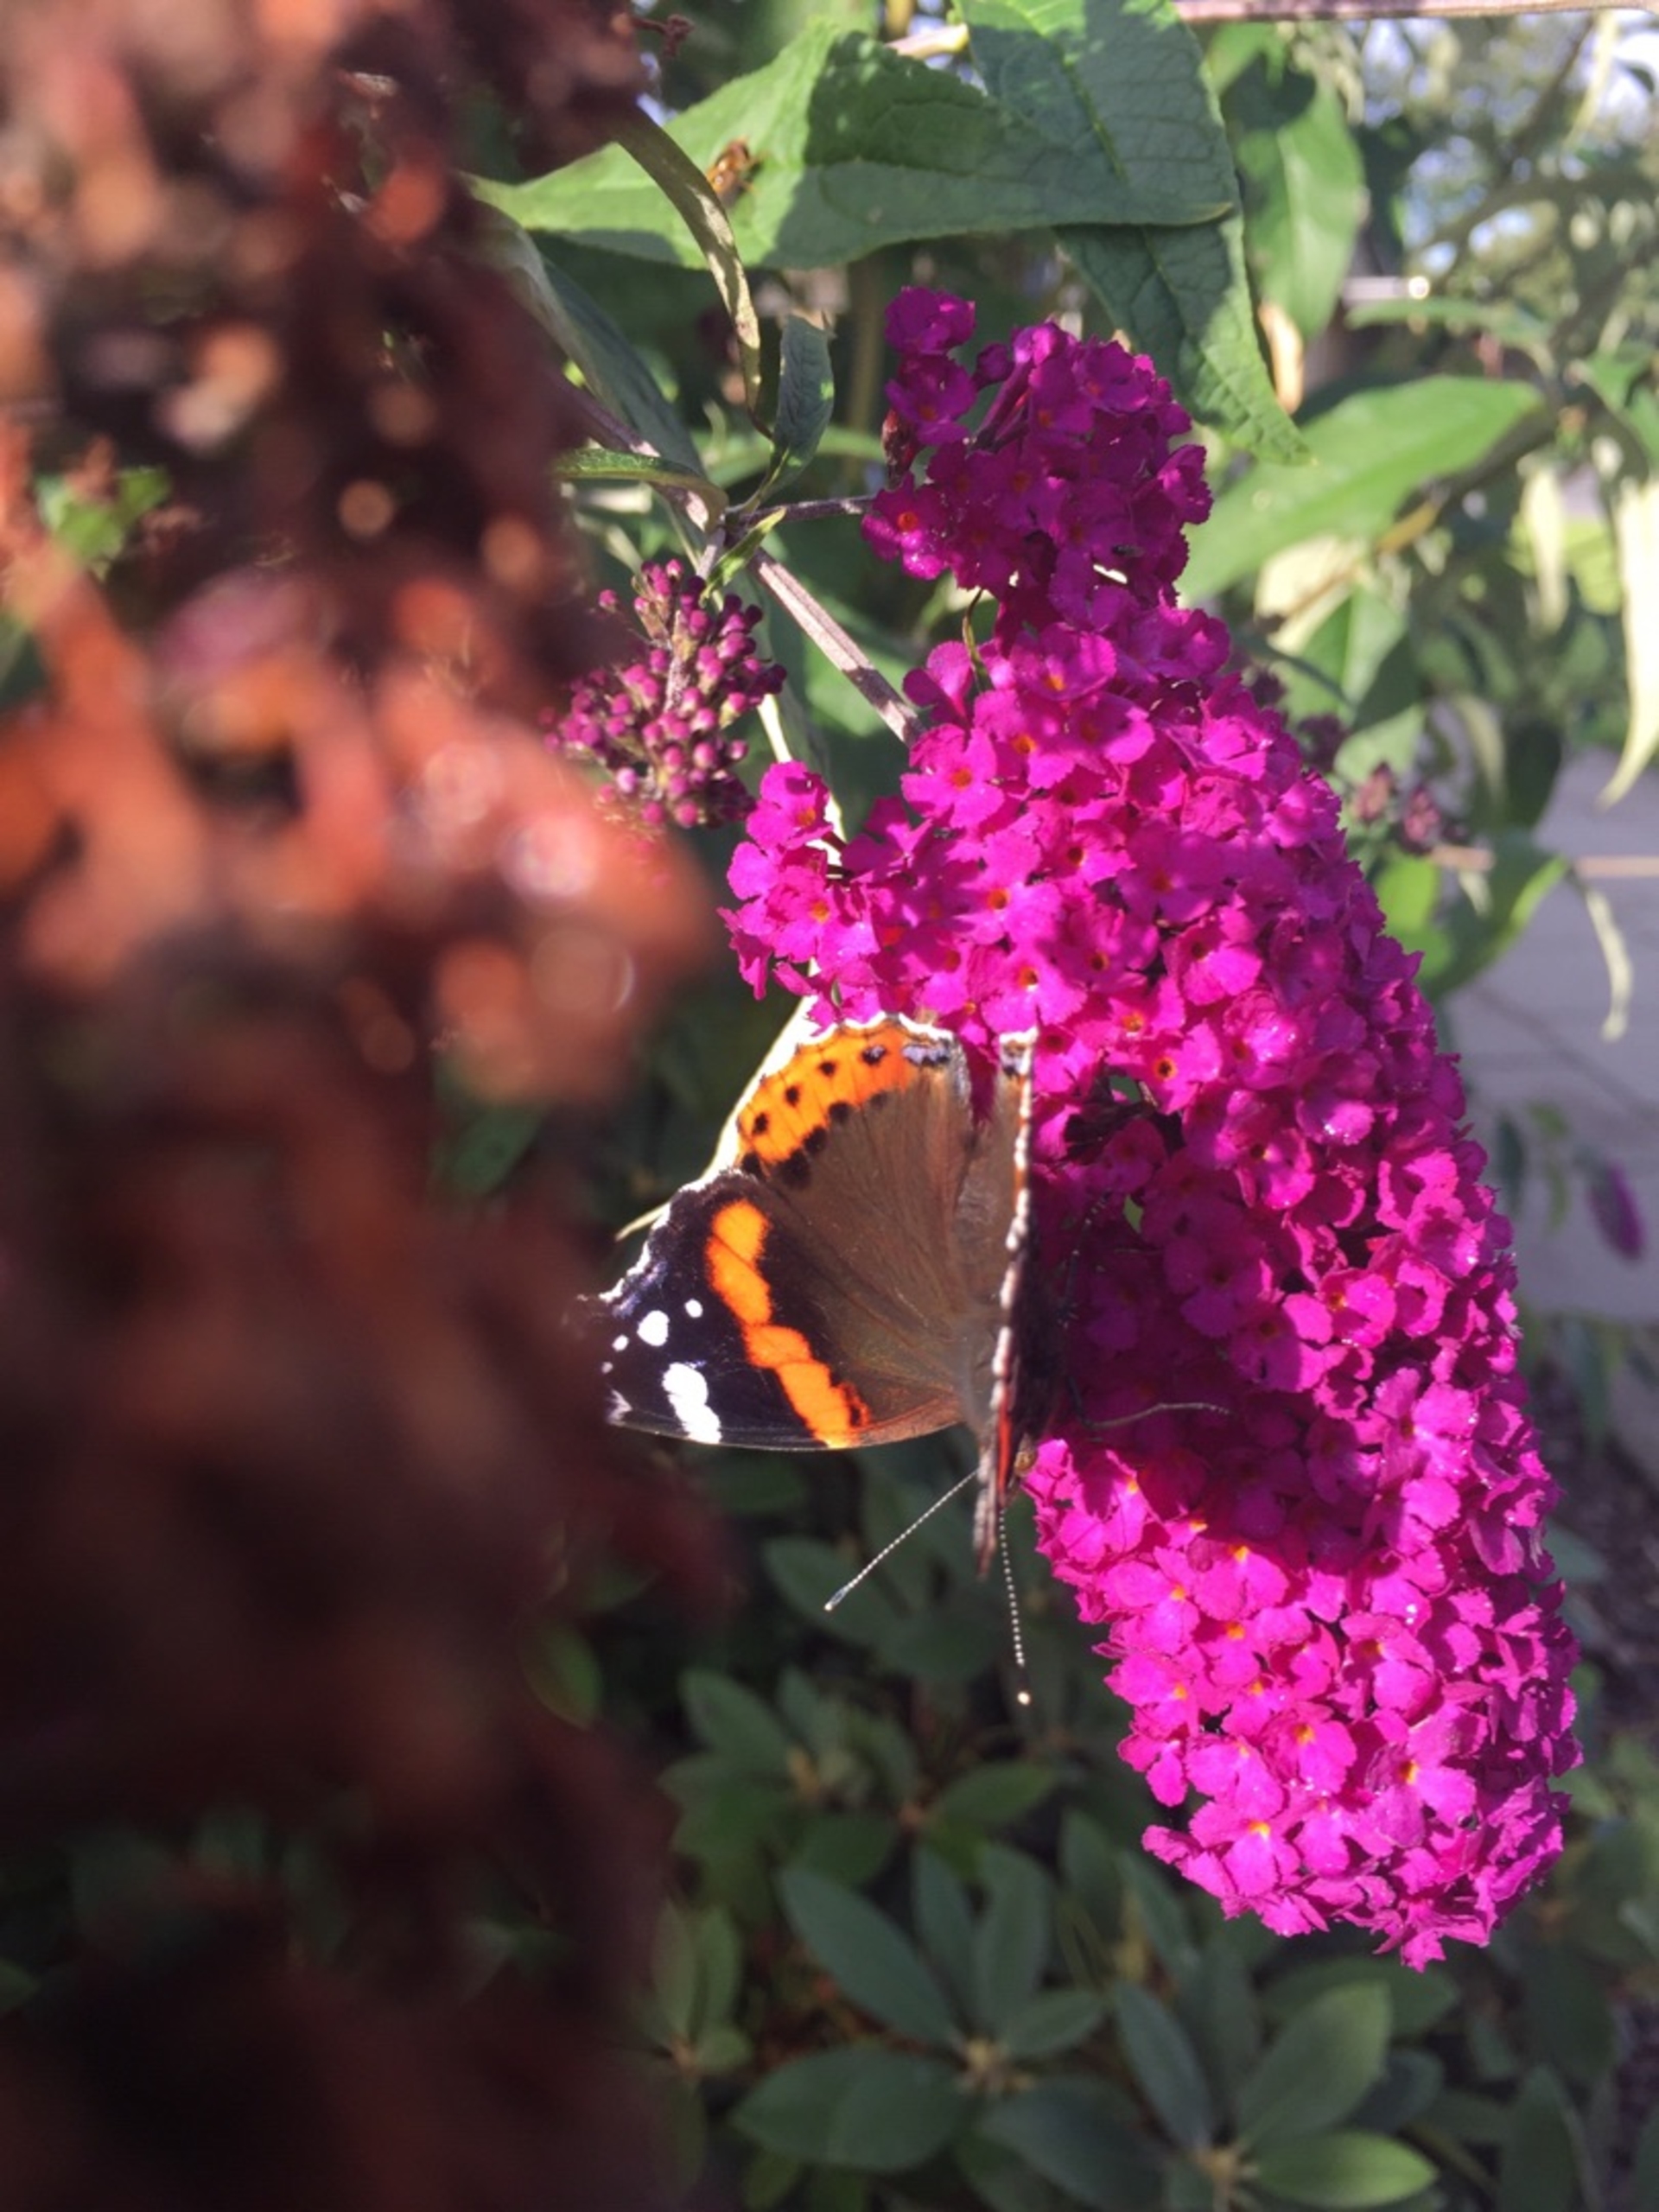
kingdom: Animalia
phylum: Arthropoda
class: Insecta
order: Lepidoptera
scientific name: Lepidoptera
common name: Sommerfugle
